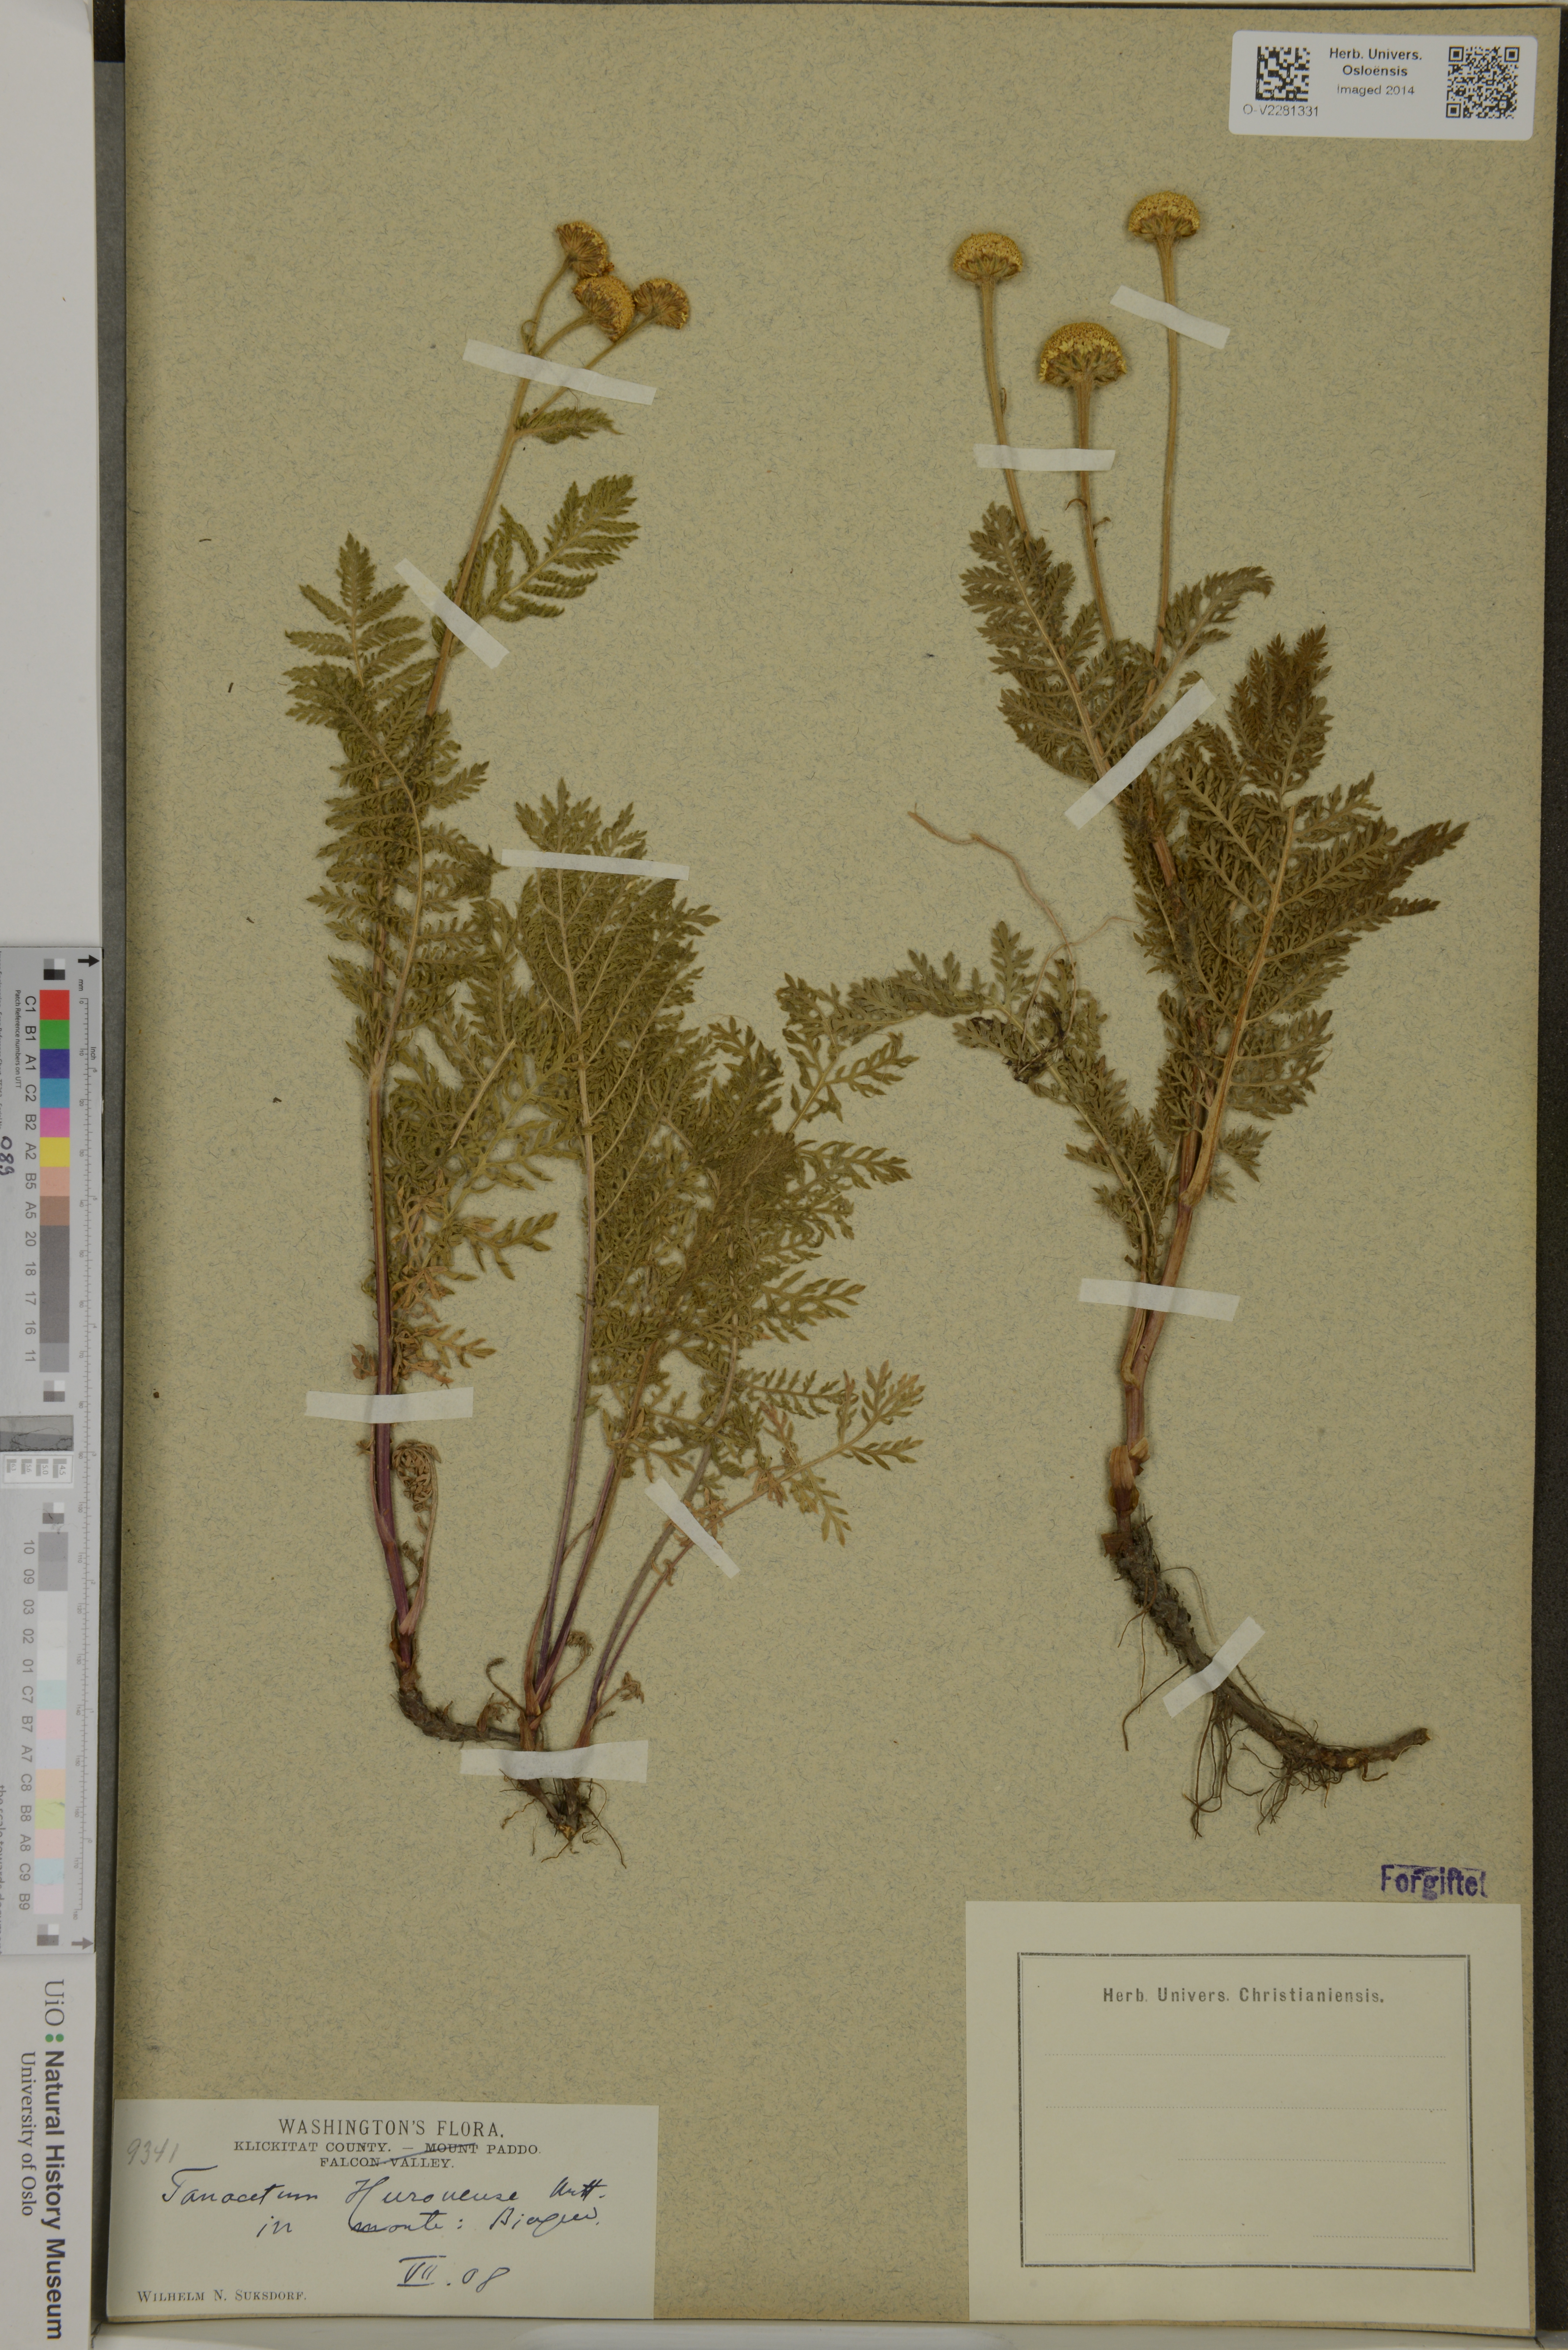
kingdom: Plantae
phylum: Tracheophyta
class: Magnoliopsida
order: Asterales
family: Asteraceae
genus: Tanacetum
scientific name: Tanacetum bipinnatum
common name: Dwarf tansy
